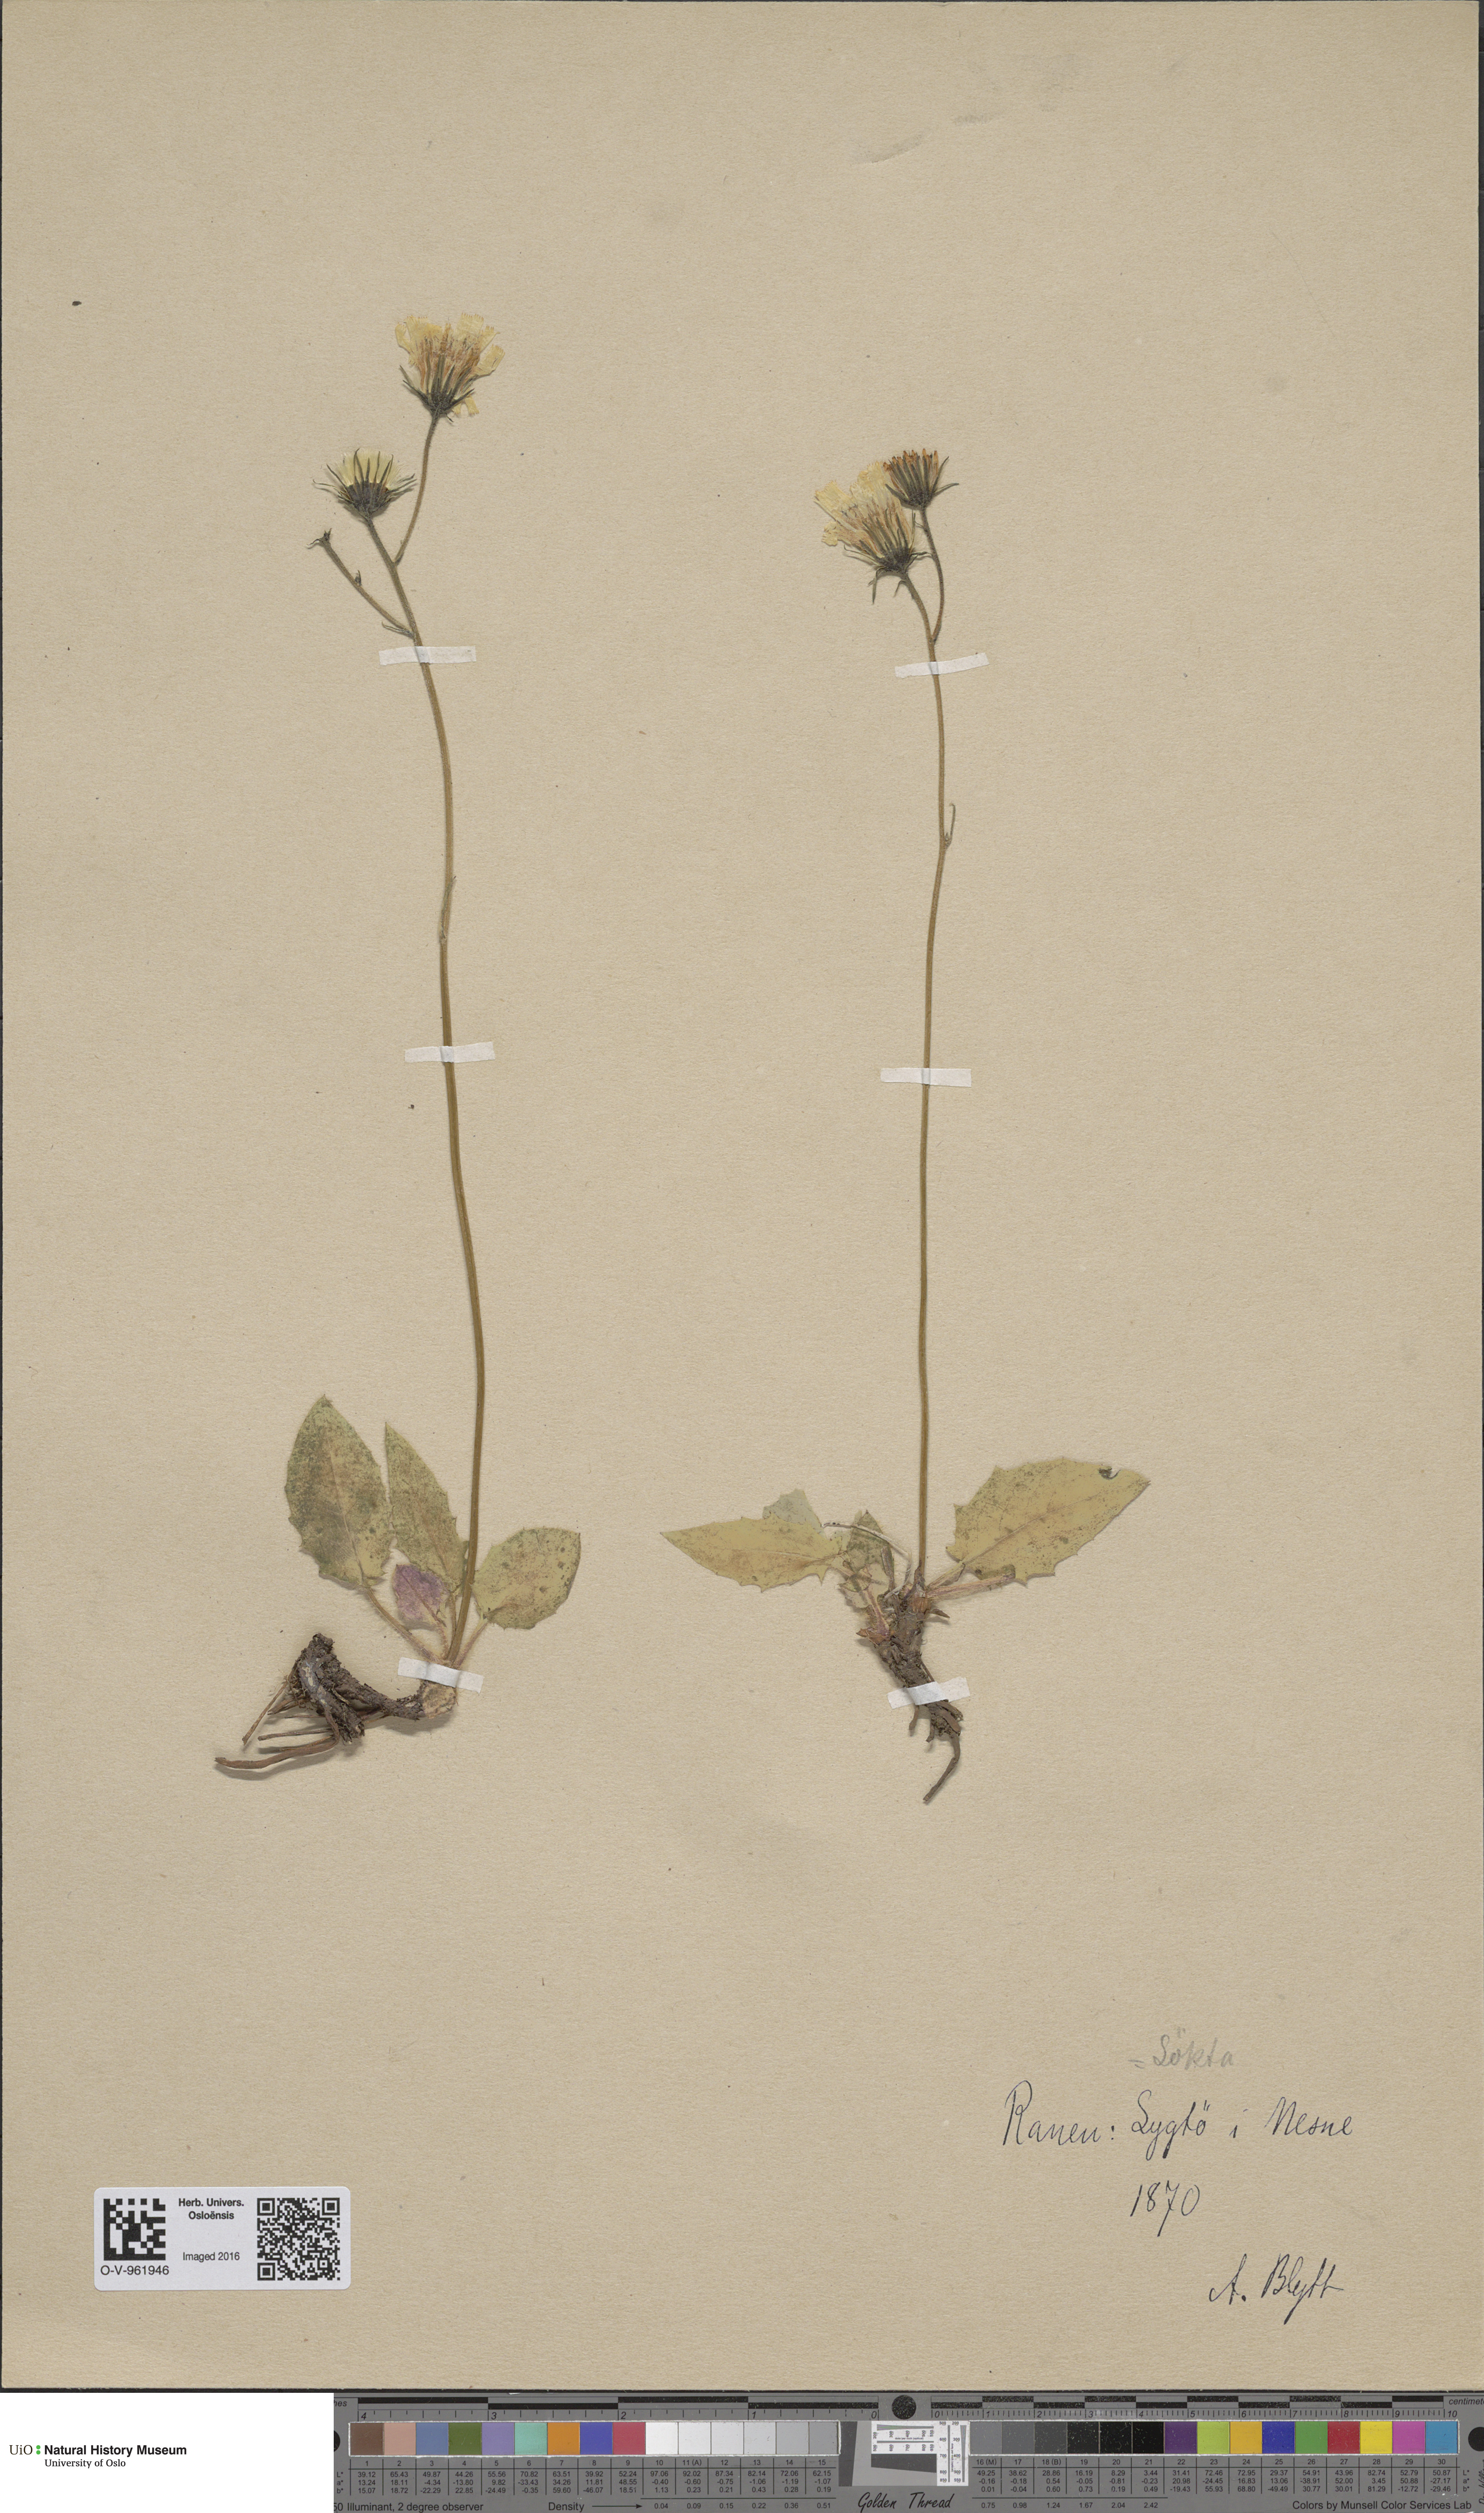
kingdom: Plantae
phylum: Tracheophyta
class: Magnoliopsida
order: Asterales
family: Asteraceae
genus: Hieracium
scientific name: Hieracium murorum
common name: Wall hawkweed
